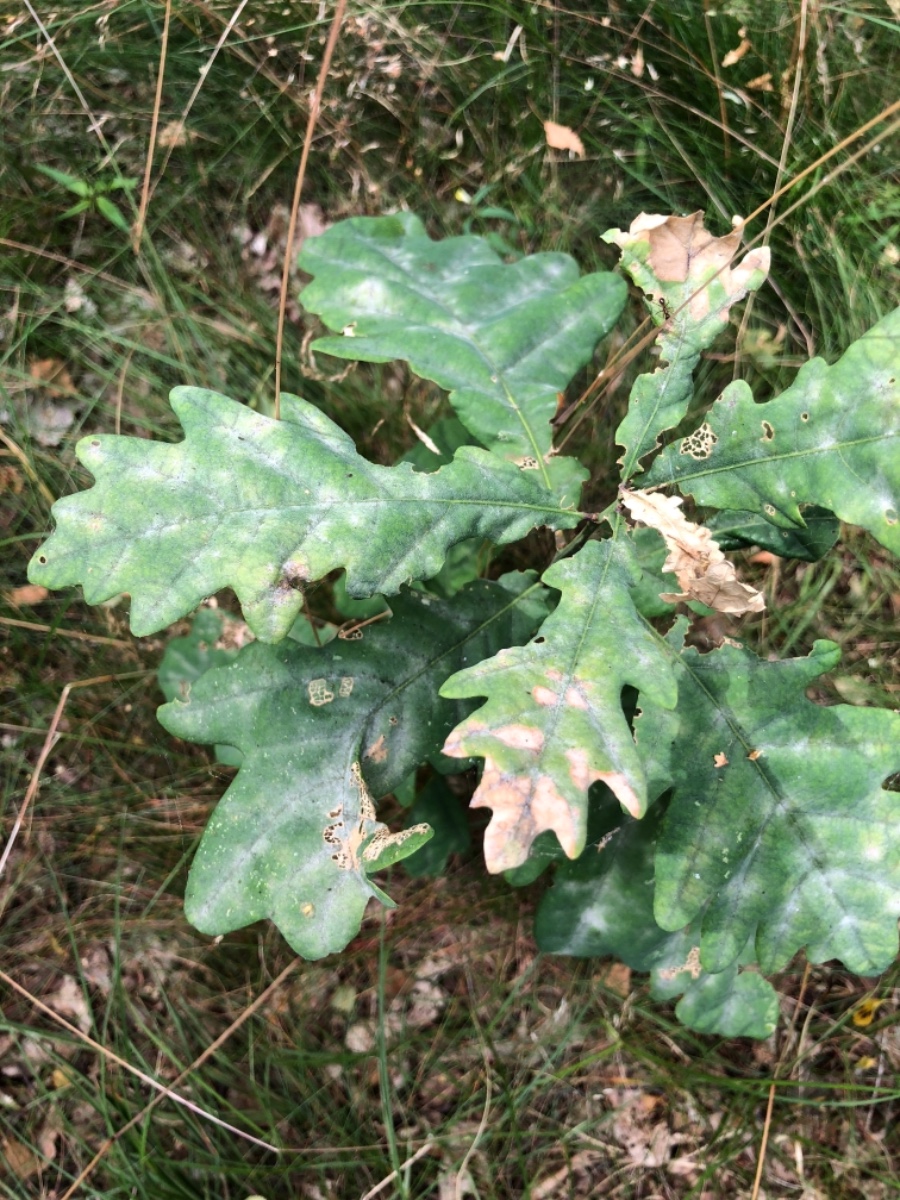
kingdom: Fungi
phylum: Ascomycota
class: Leotiomycetes
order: Helotiales
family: Erysiphaceae
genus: Erysiphe
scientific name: Erysiphe alphitoides
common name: ege-meldug
